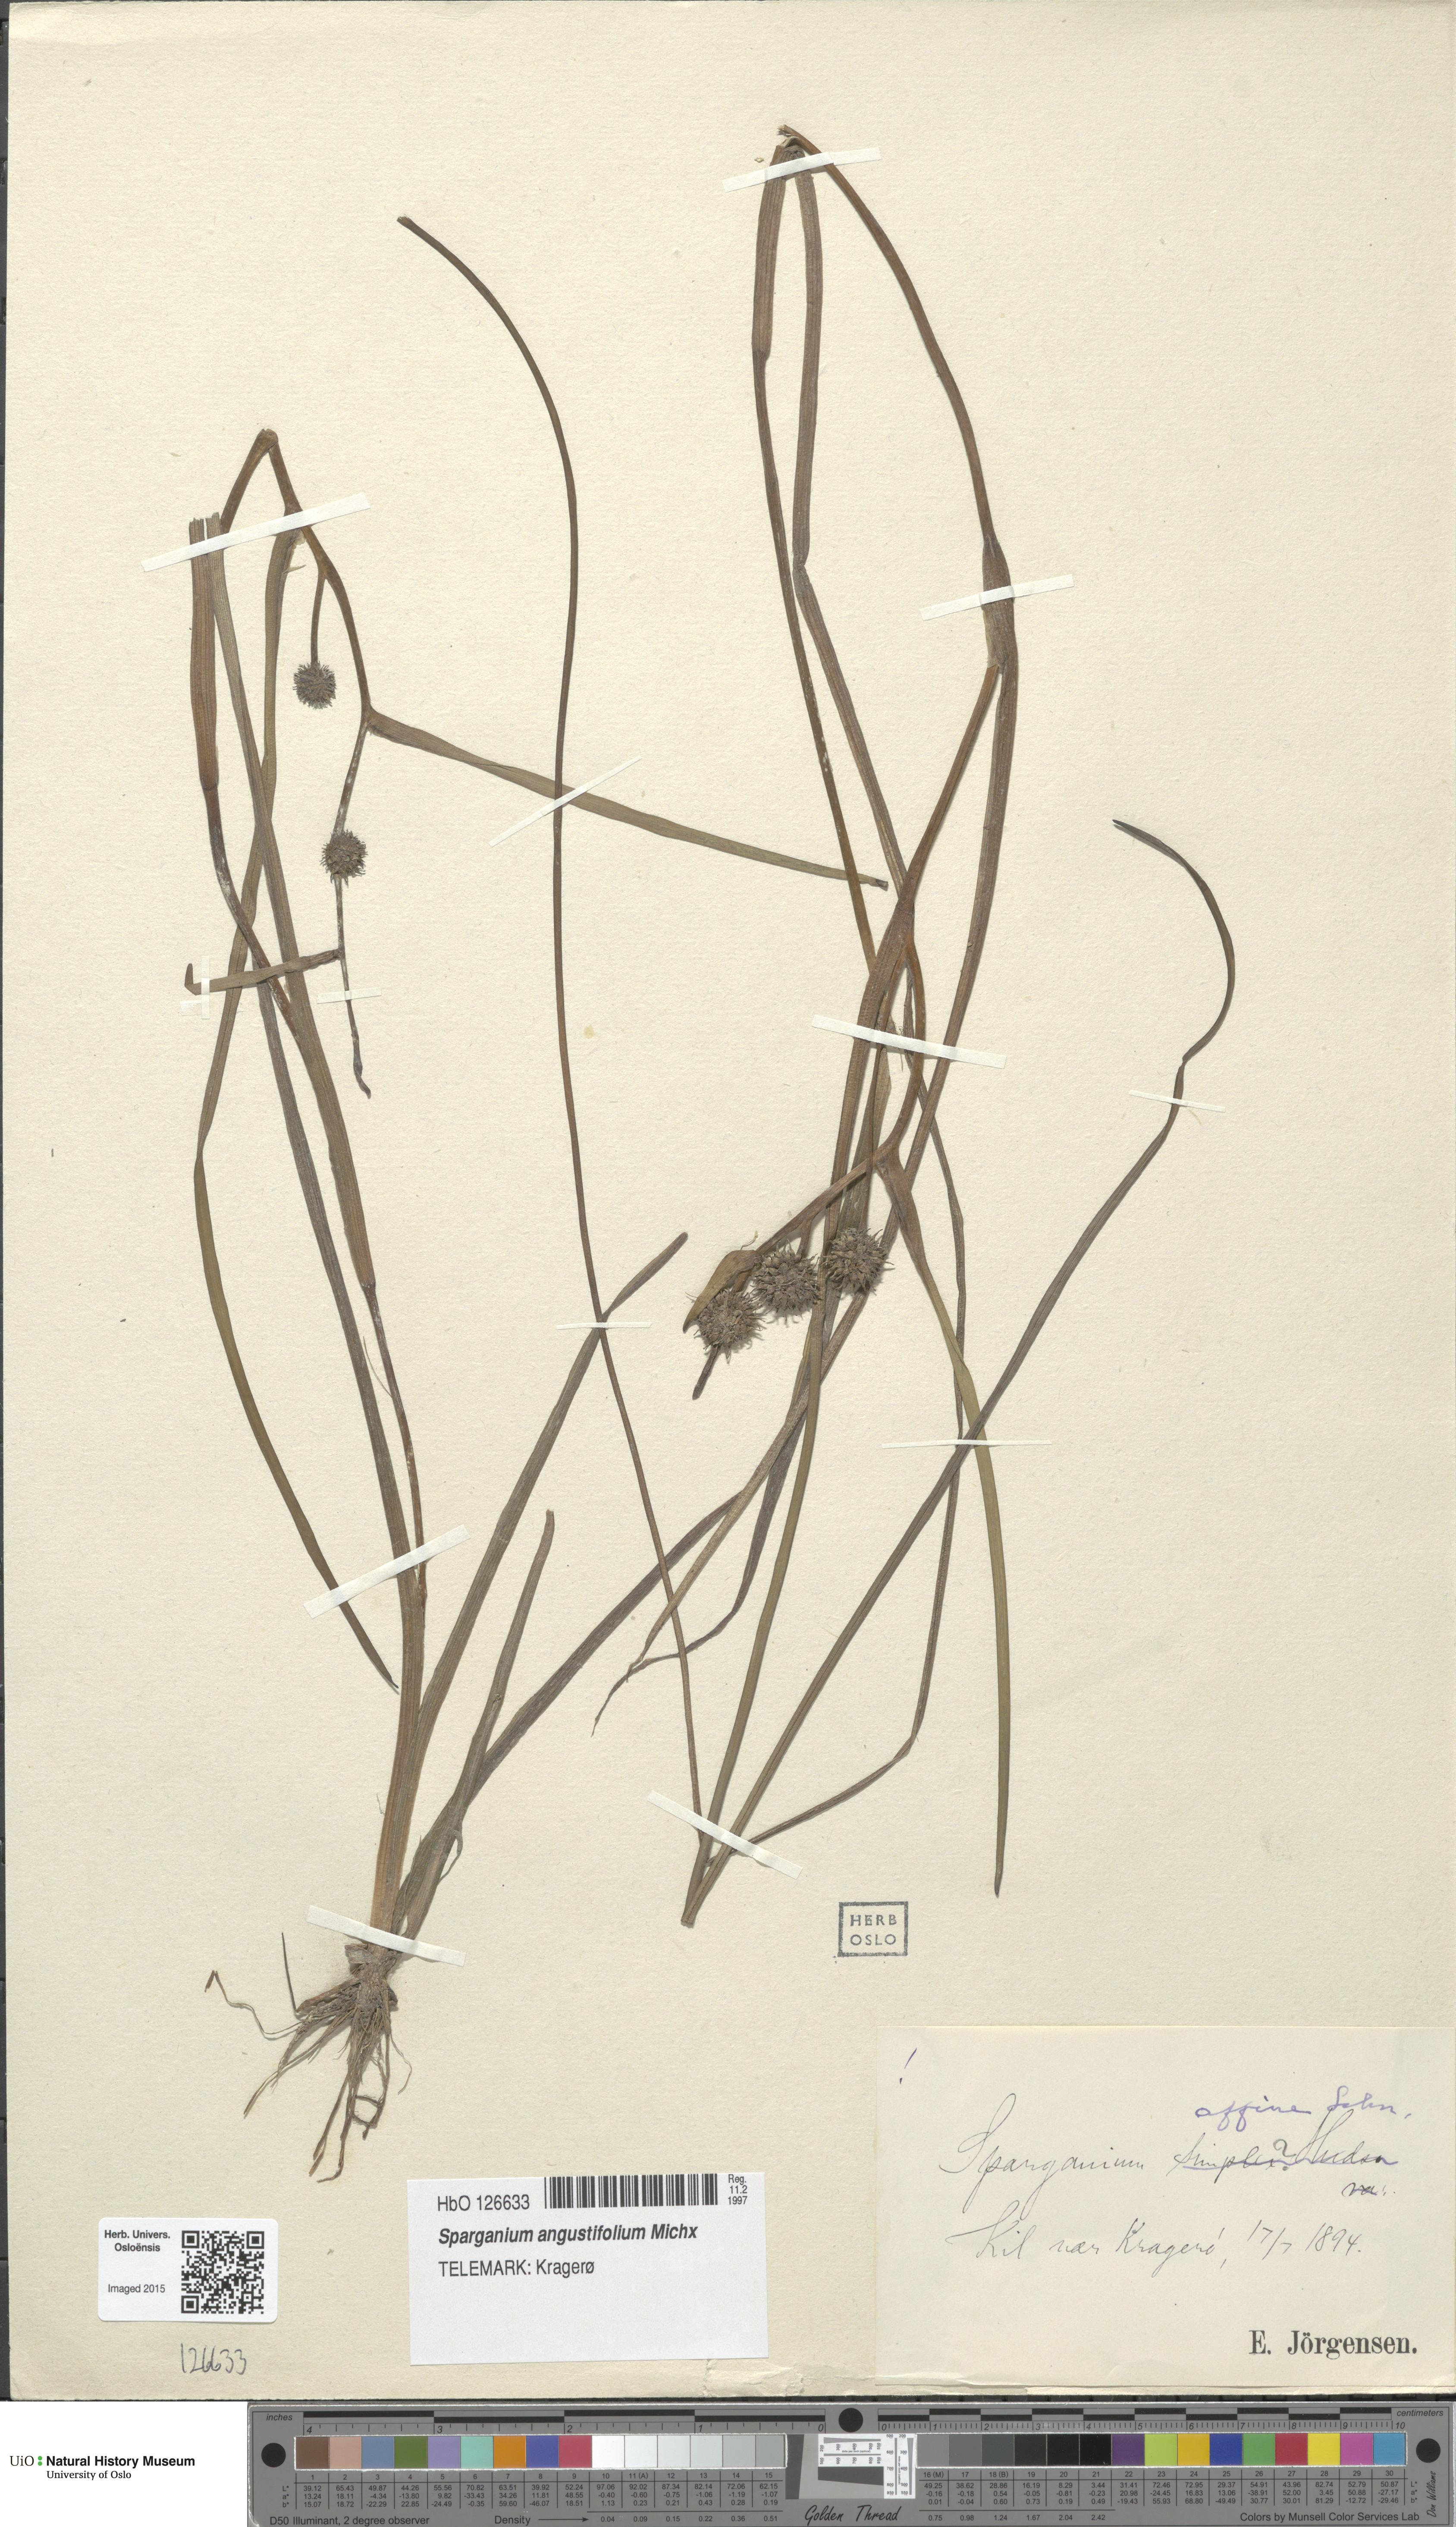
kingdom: Plantae
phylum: Tracheophyta
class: Liliopsida
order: Poales
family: Typhaceae
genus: Sparganium
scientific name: Sparganium angustifolium
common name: Floating bur-reed
